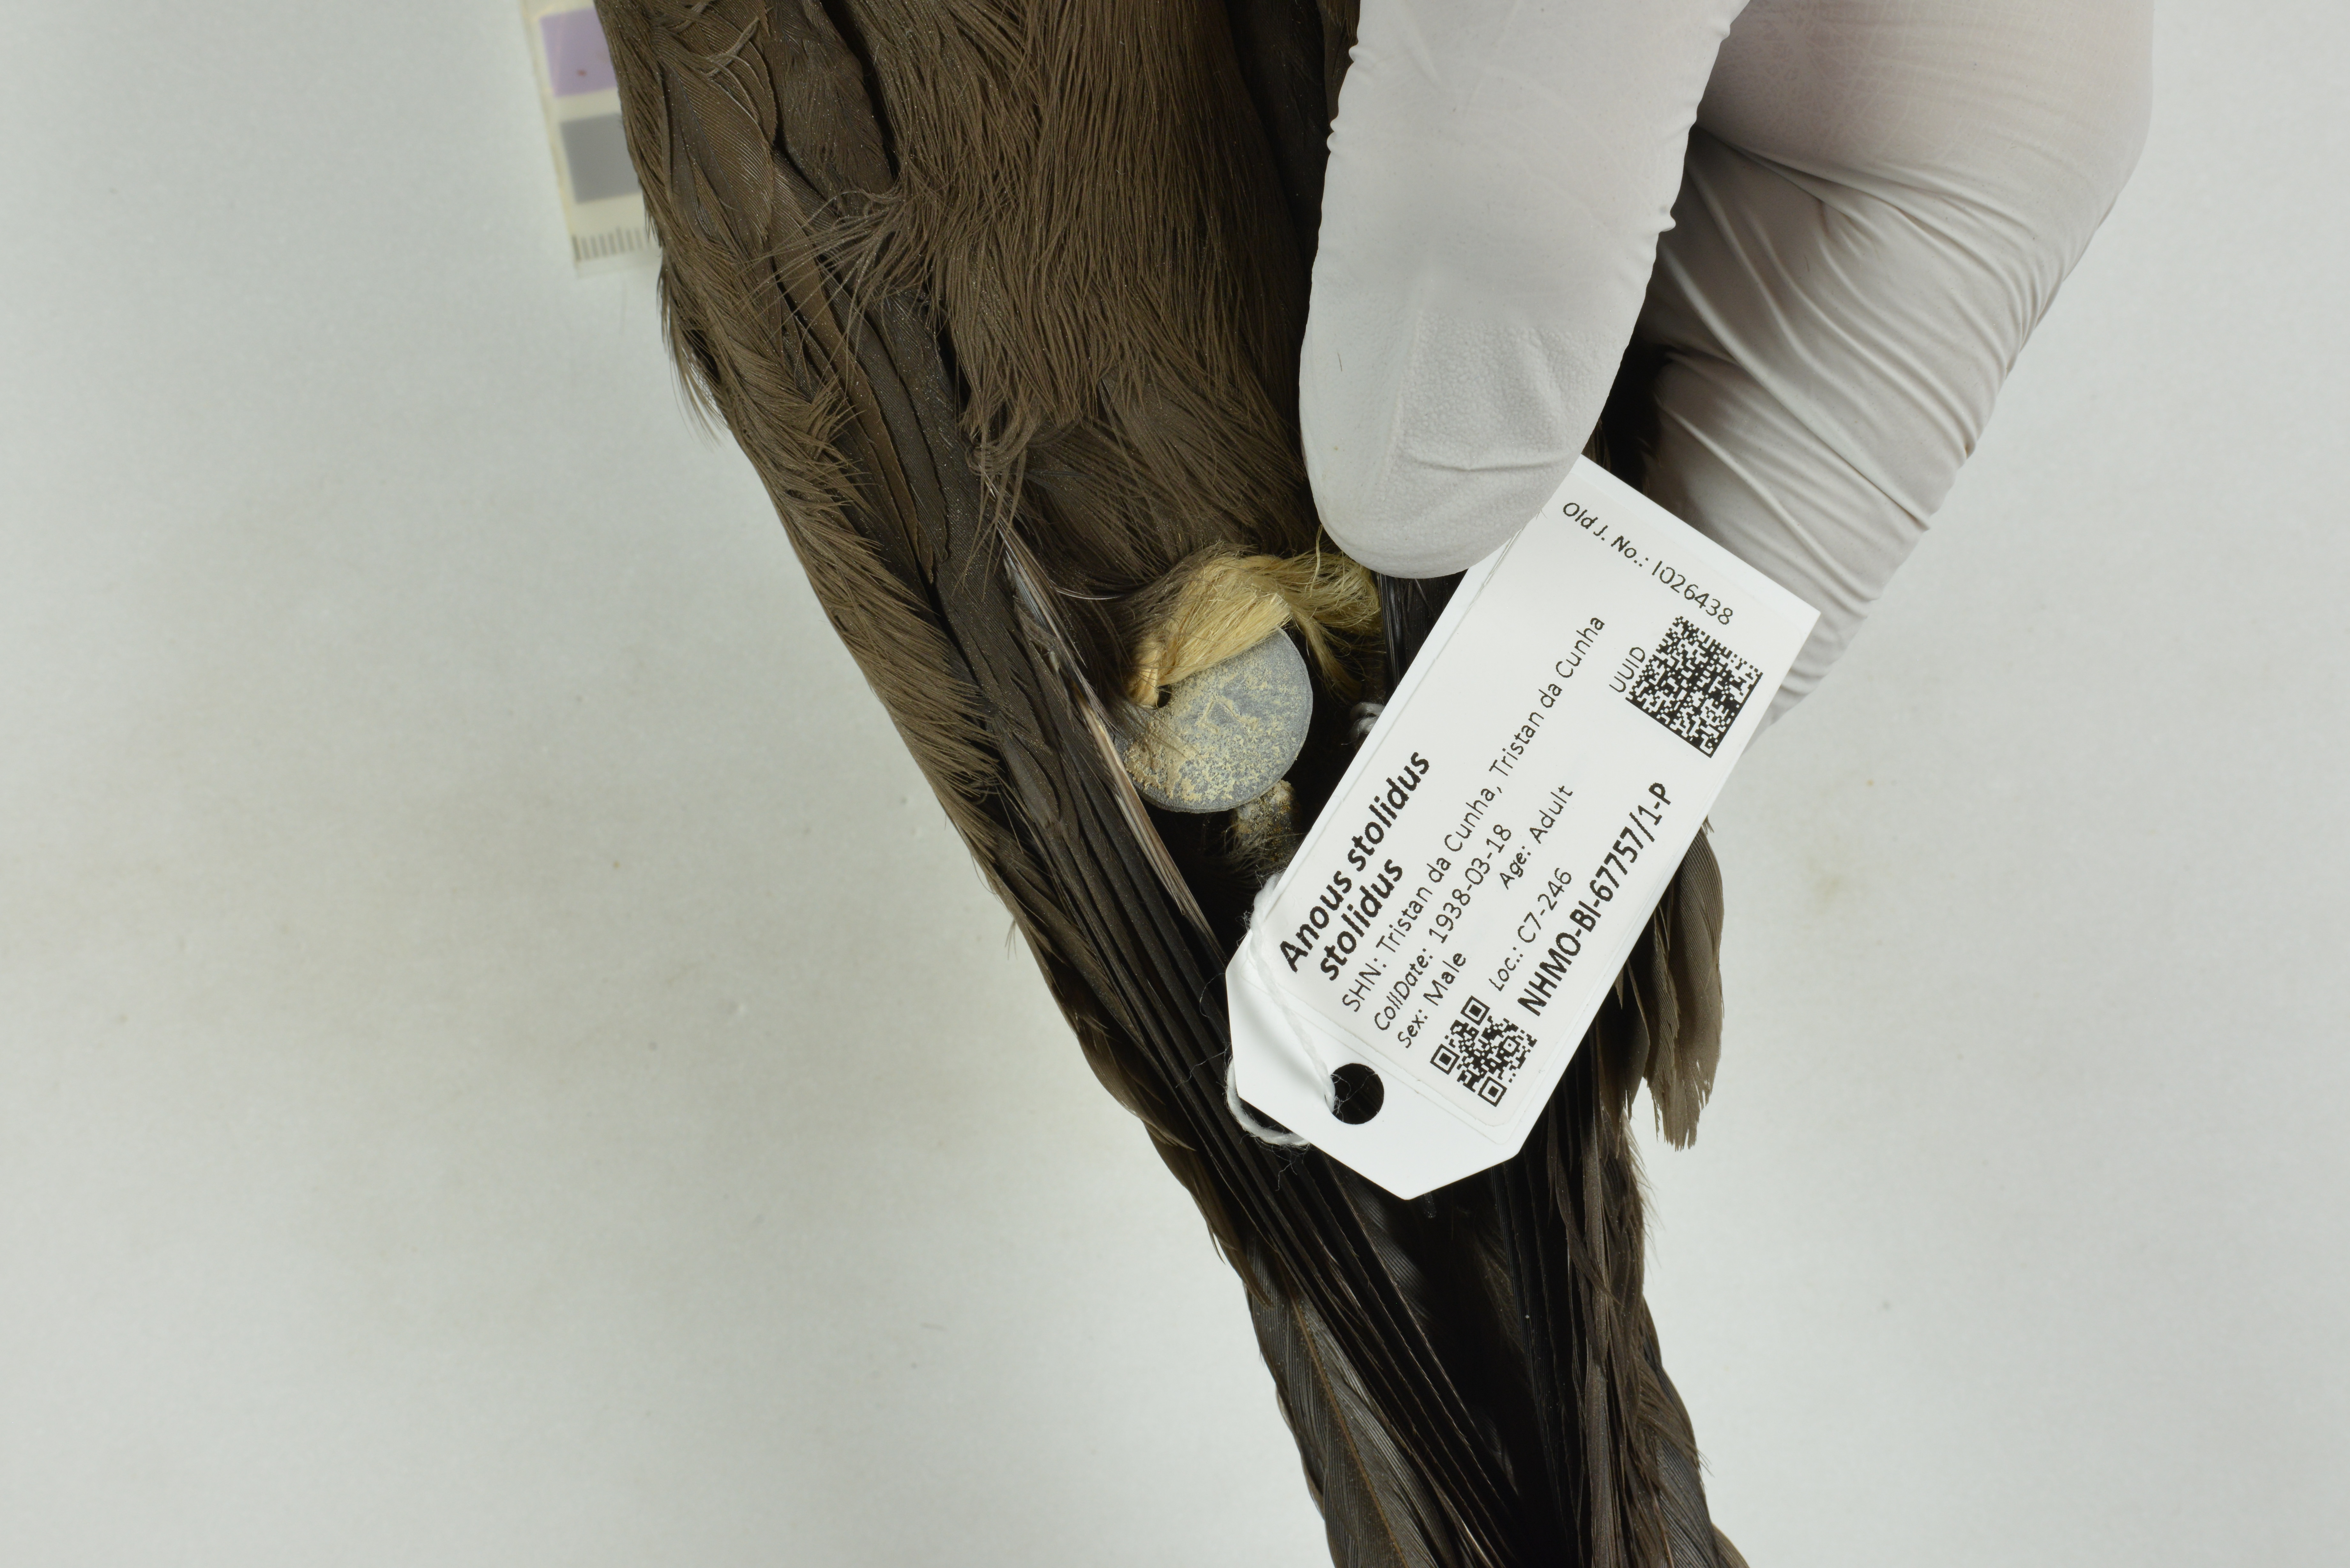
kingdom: Animalia
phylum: Chordata
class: Aves
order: Charadriiformes
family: Laridae
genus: Anous
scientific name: Anous stolidus
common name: Brown noddy
